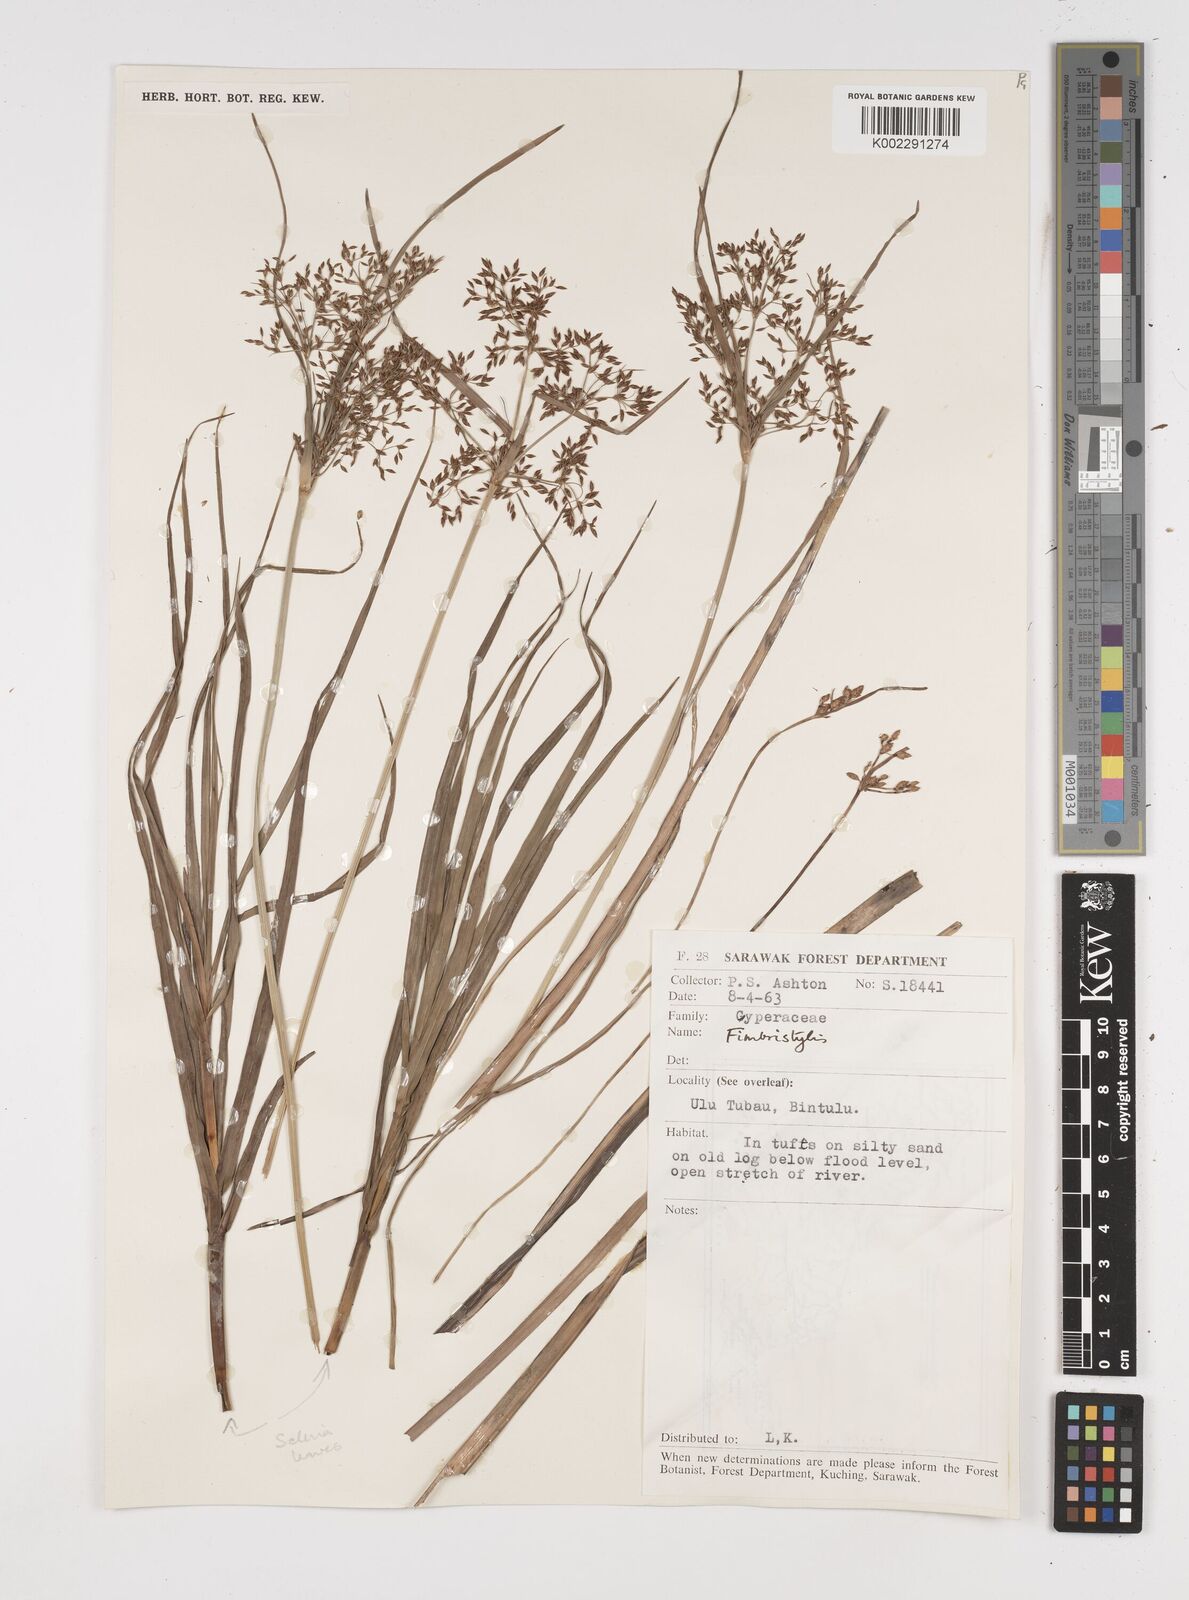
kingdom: Plantae
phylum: Tracheophyta
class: Liliopsida
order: Poales
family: Cyperaceae
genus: Fimbristylis
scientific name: Fimbristylis
